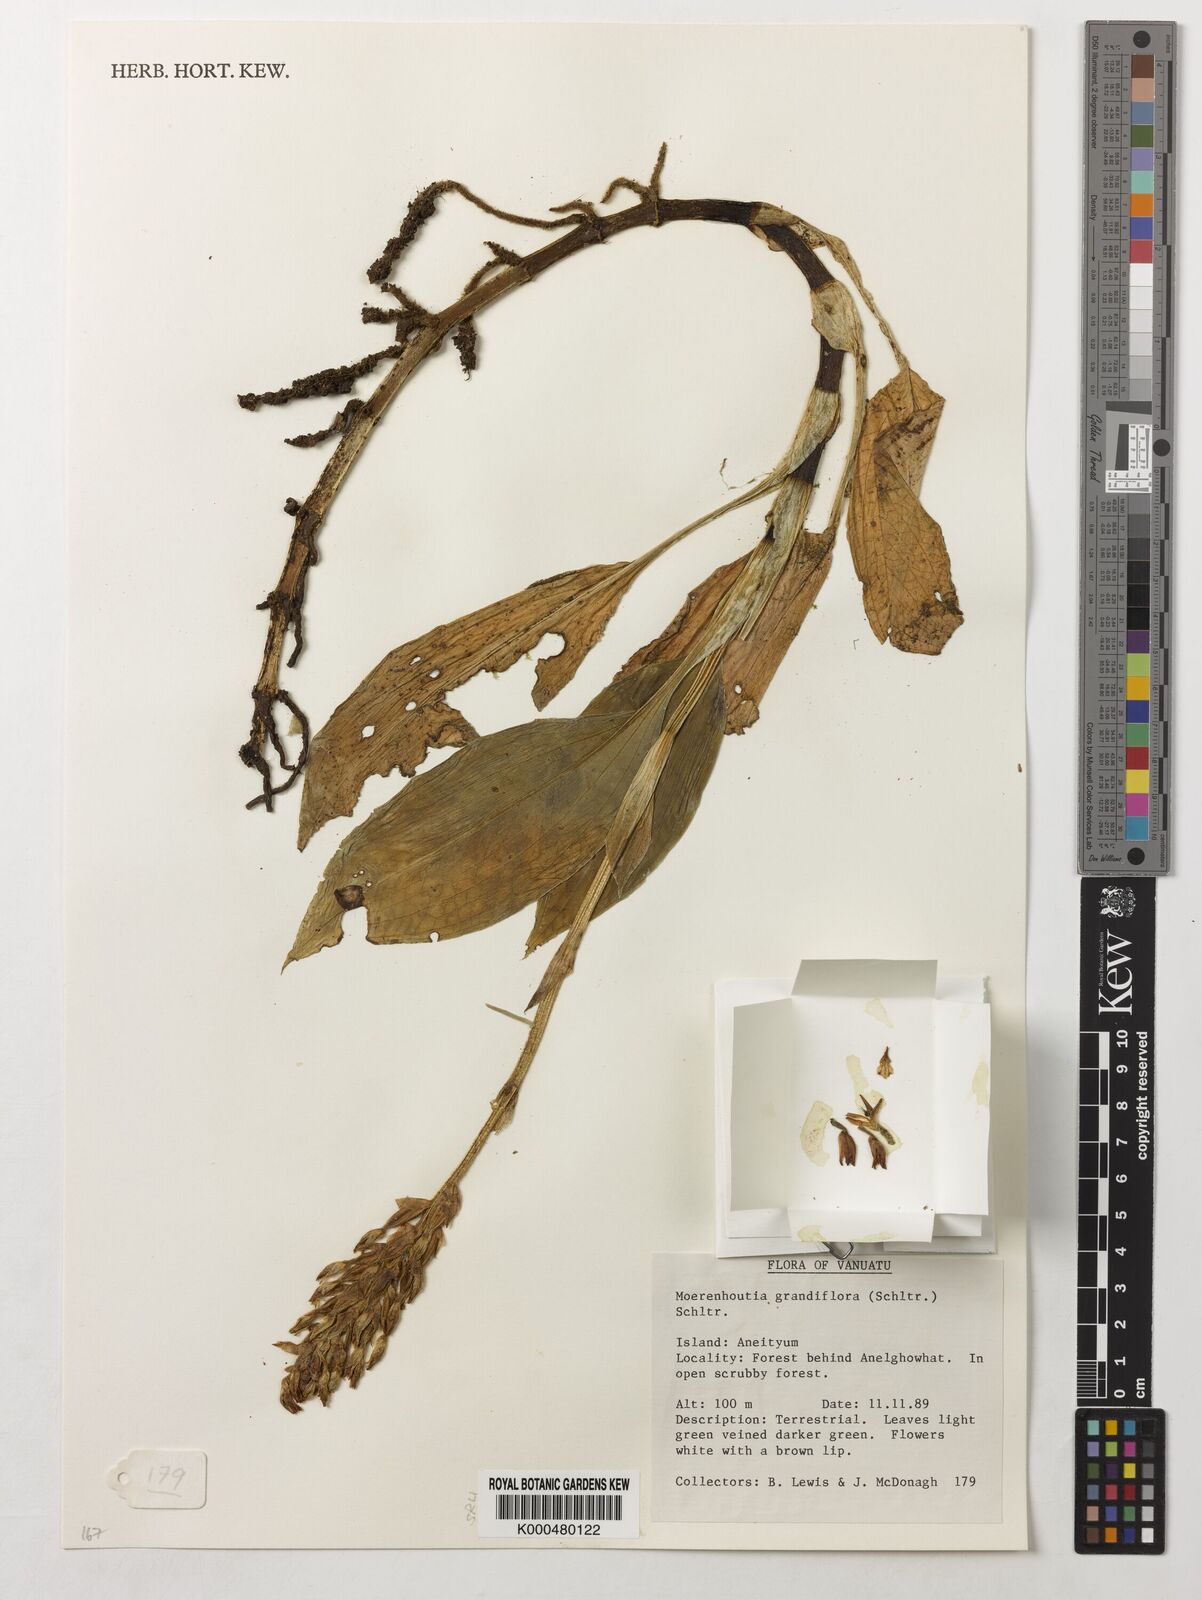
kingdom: Plantae
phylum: Tracheophyta
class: Liliopsida
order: Asparagales
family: Orchidaceae
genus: Platylepis
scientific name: Platylepis grandiflora
